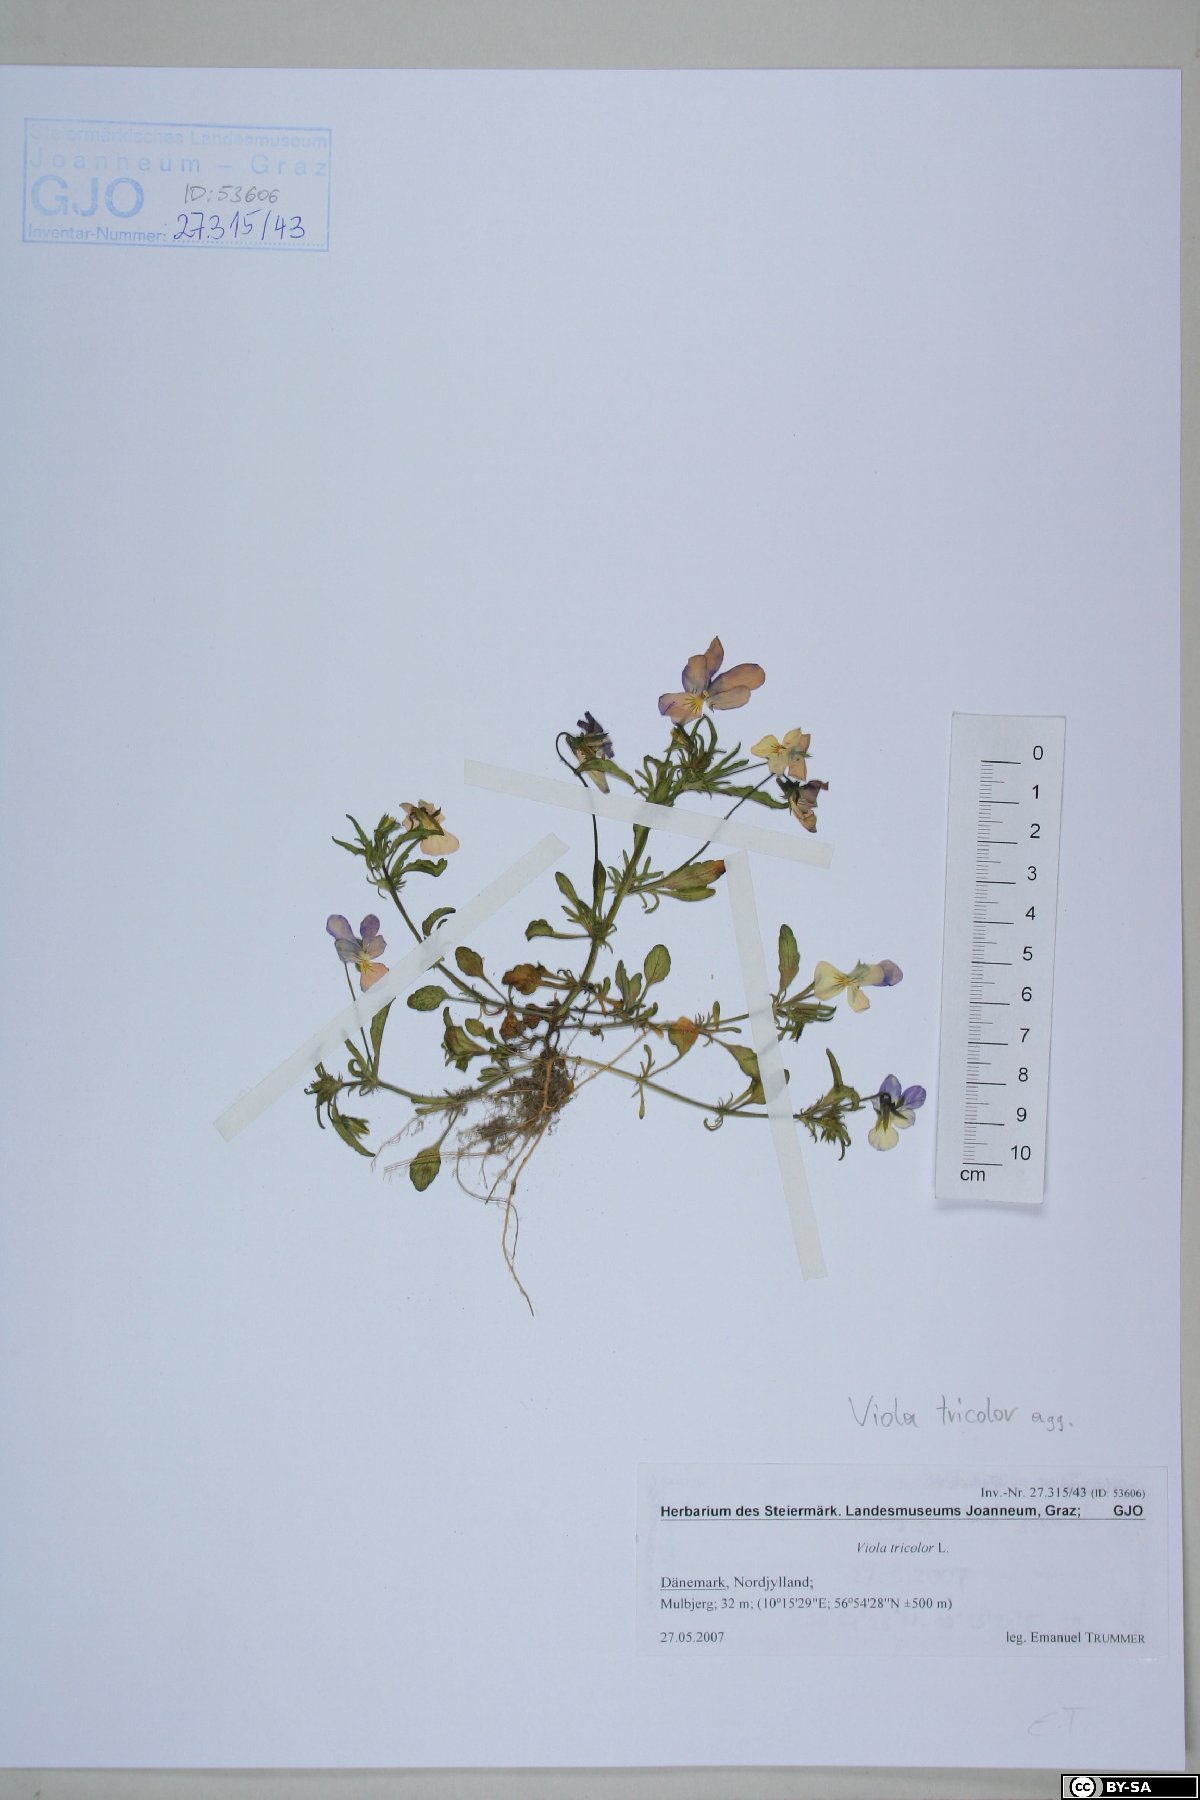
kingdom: Plantae
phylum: Tracheophyta
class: Magnoliopsida
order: Malpighiales
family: Violaceae
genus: Viola
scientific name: Viola tricolor
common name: Pansy
